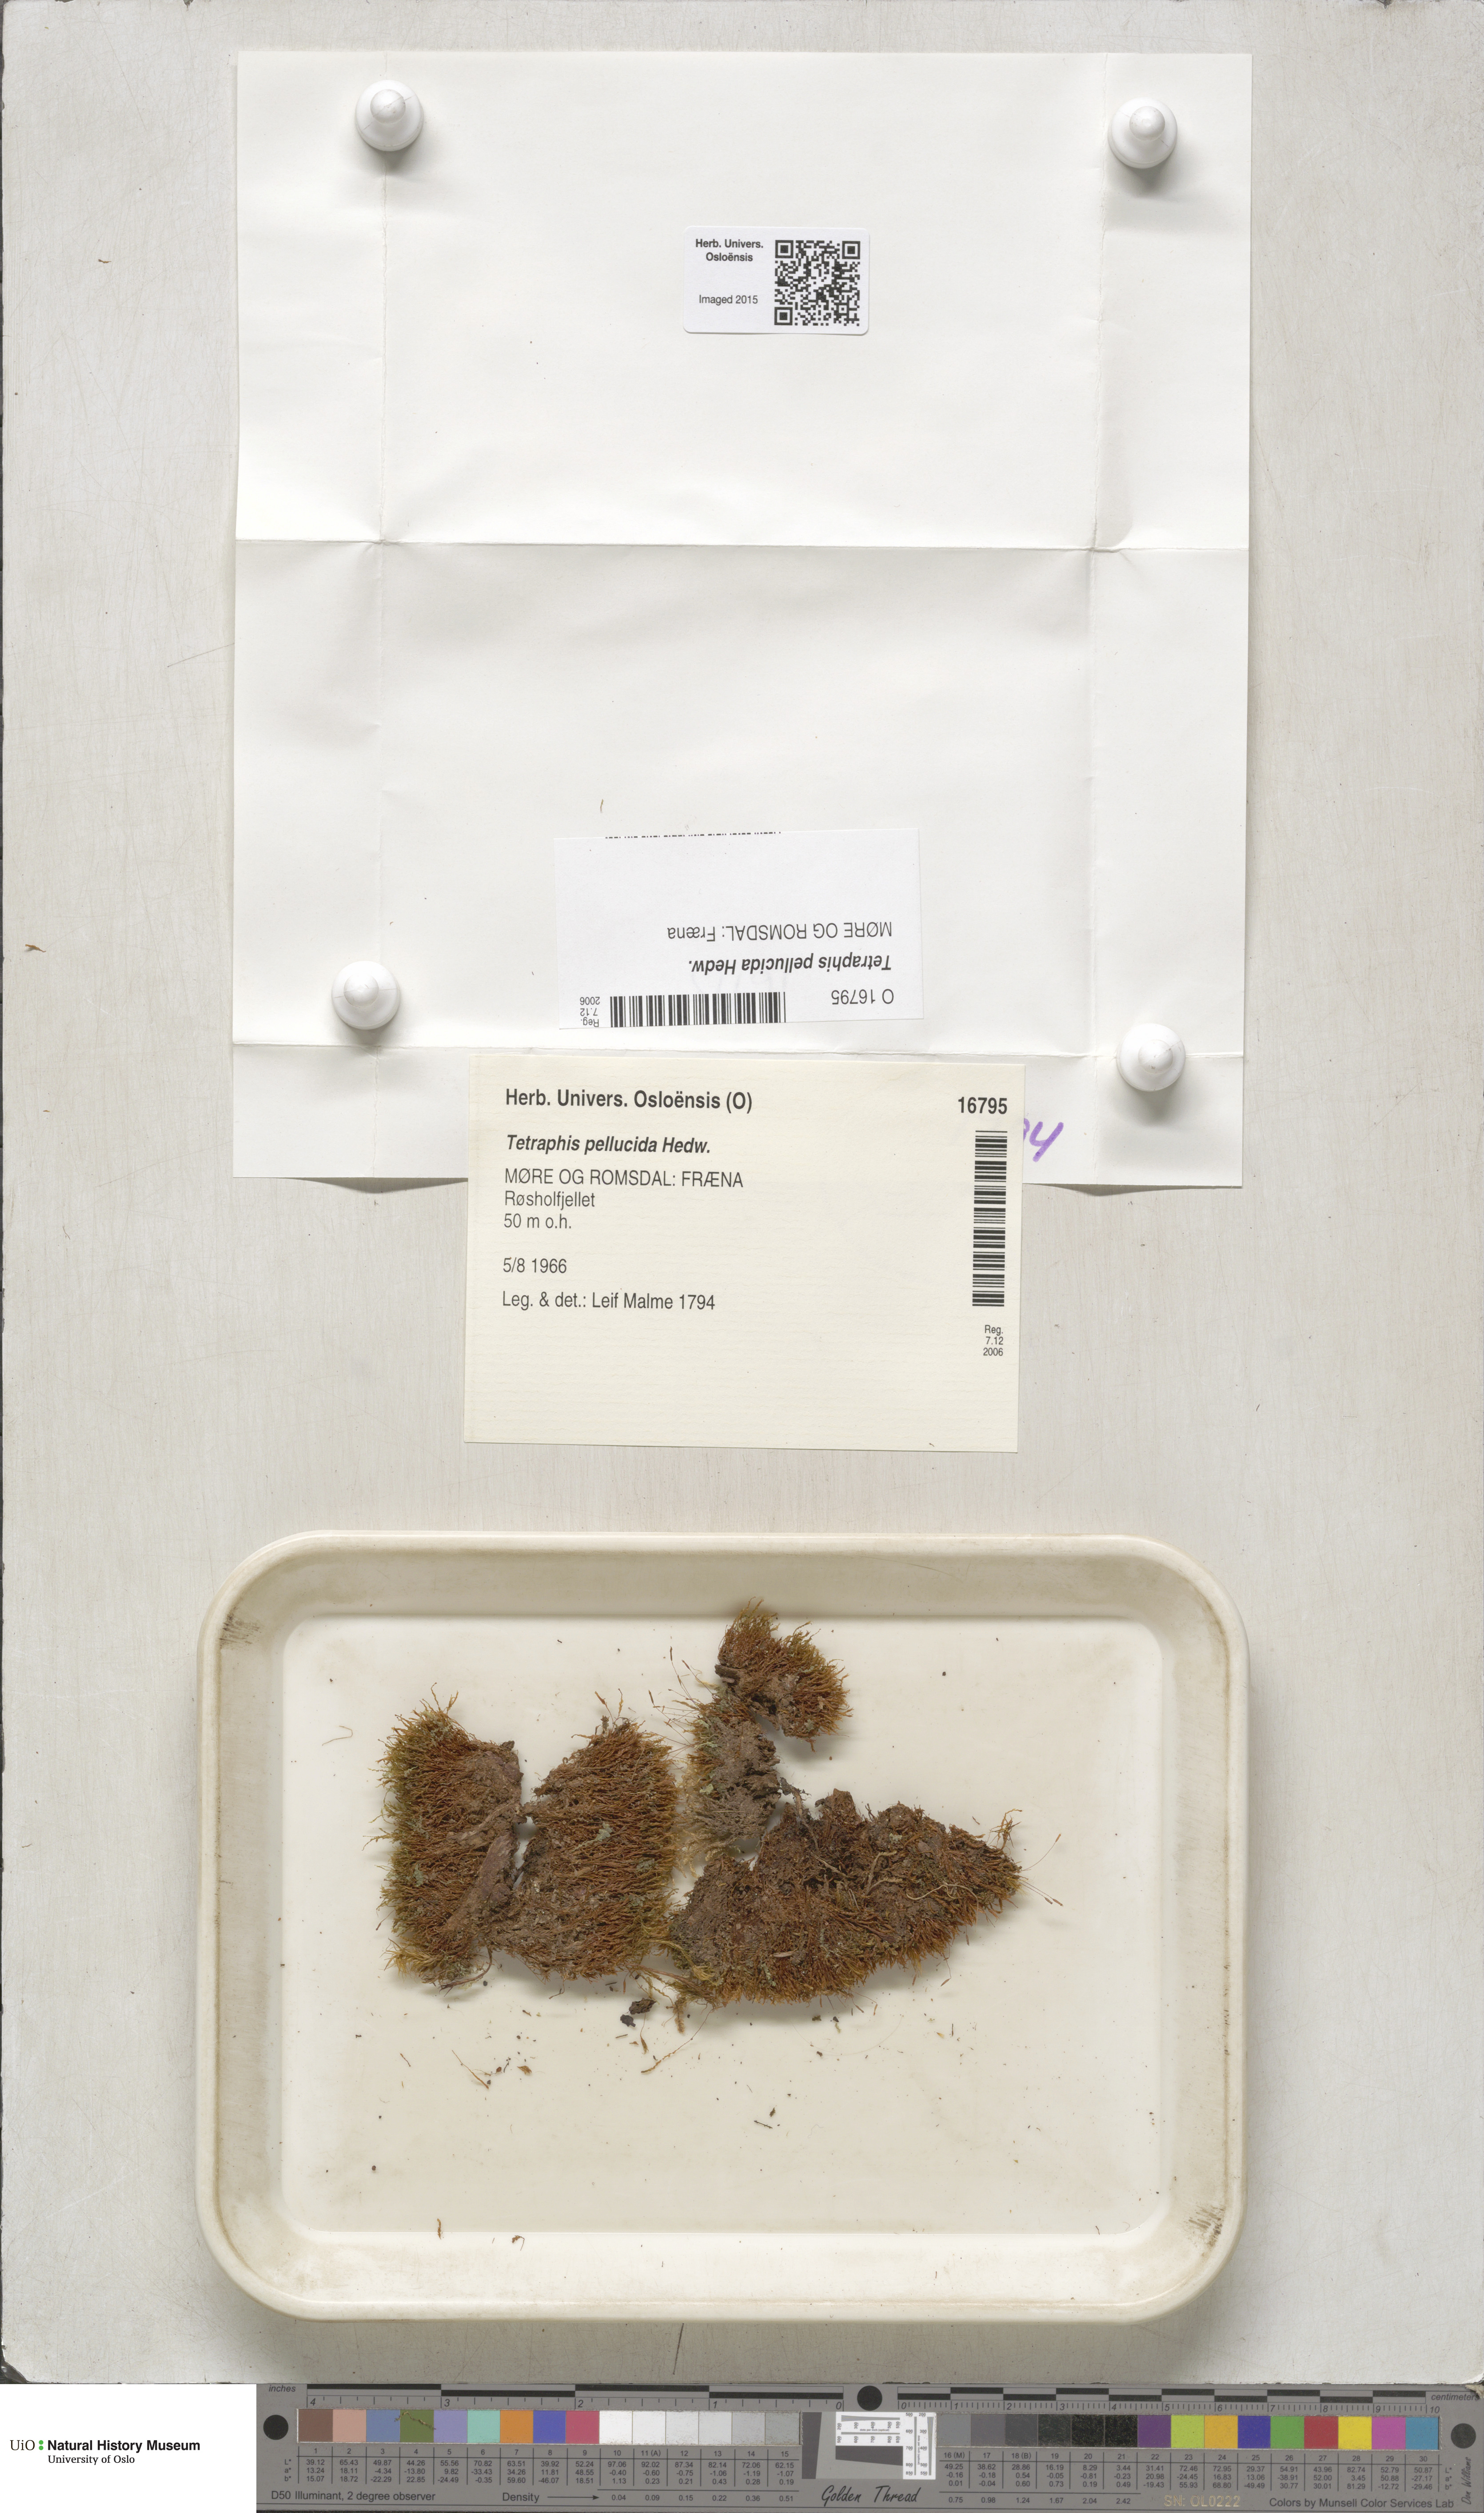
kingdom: Plantae
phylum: Bryophyta
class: Polytrichopsida
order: Tetraphidales
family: Tetraphidaceae
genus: Tetraphis
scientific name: Tetraphis pellucida
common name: Common four-toothed moss
